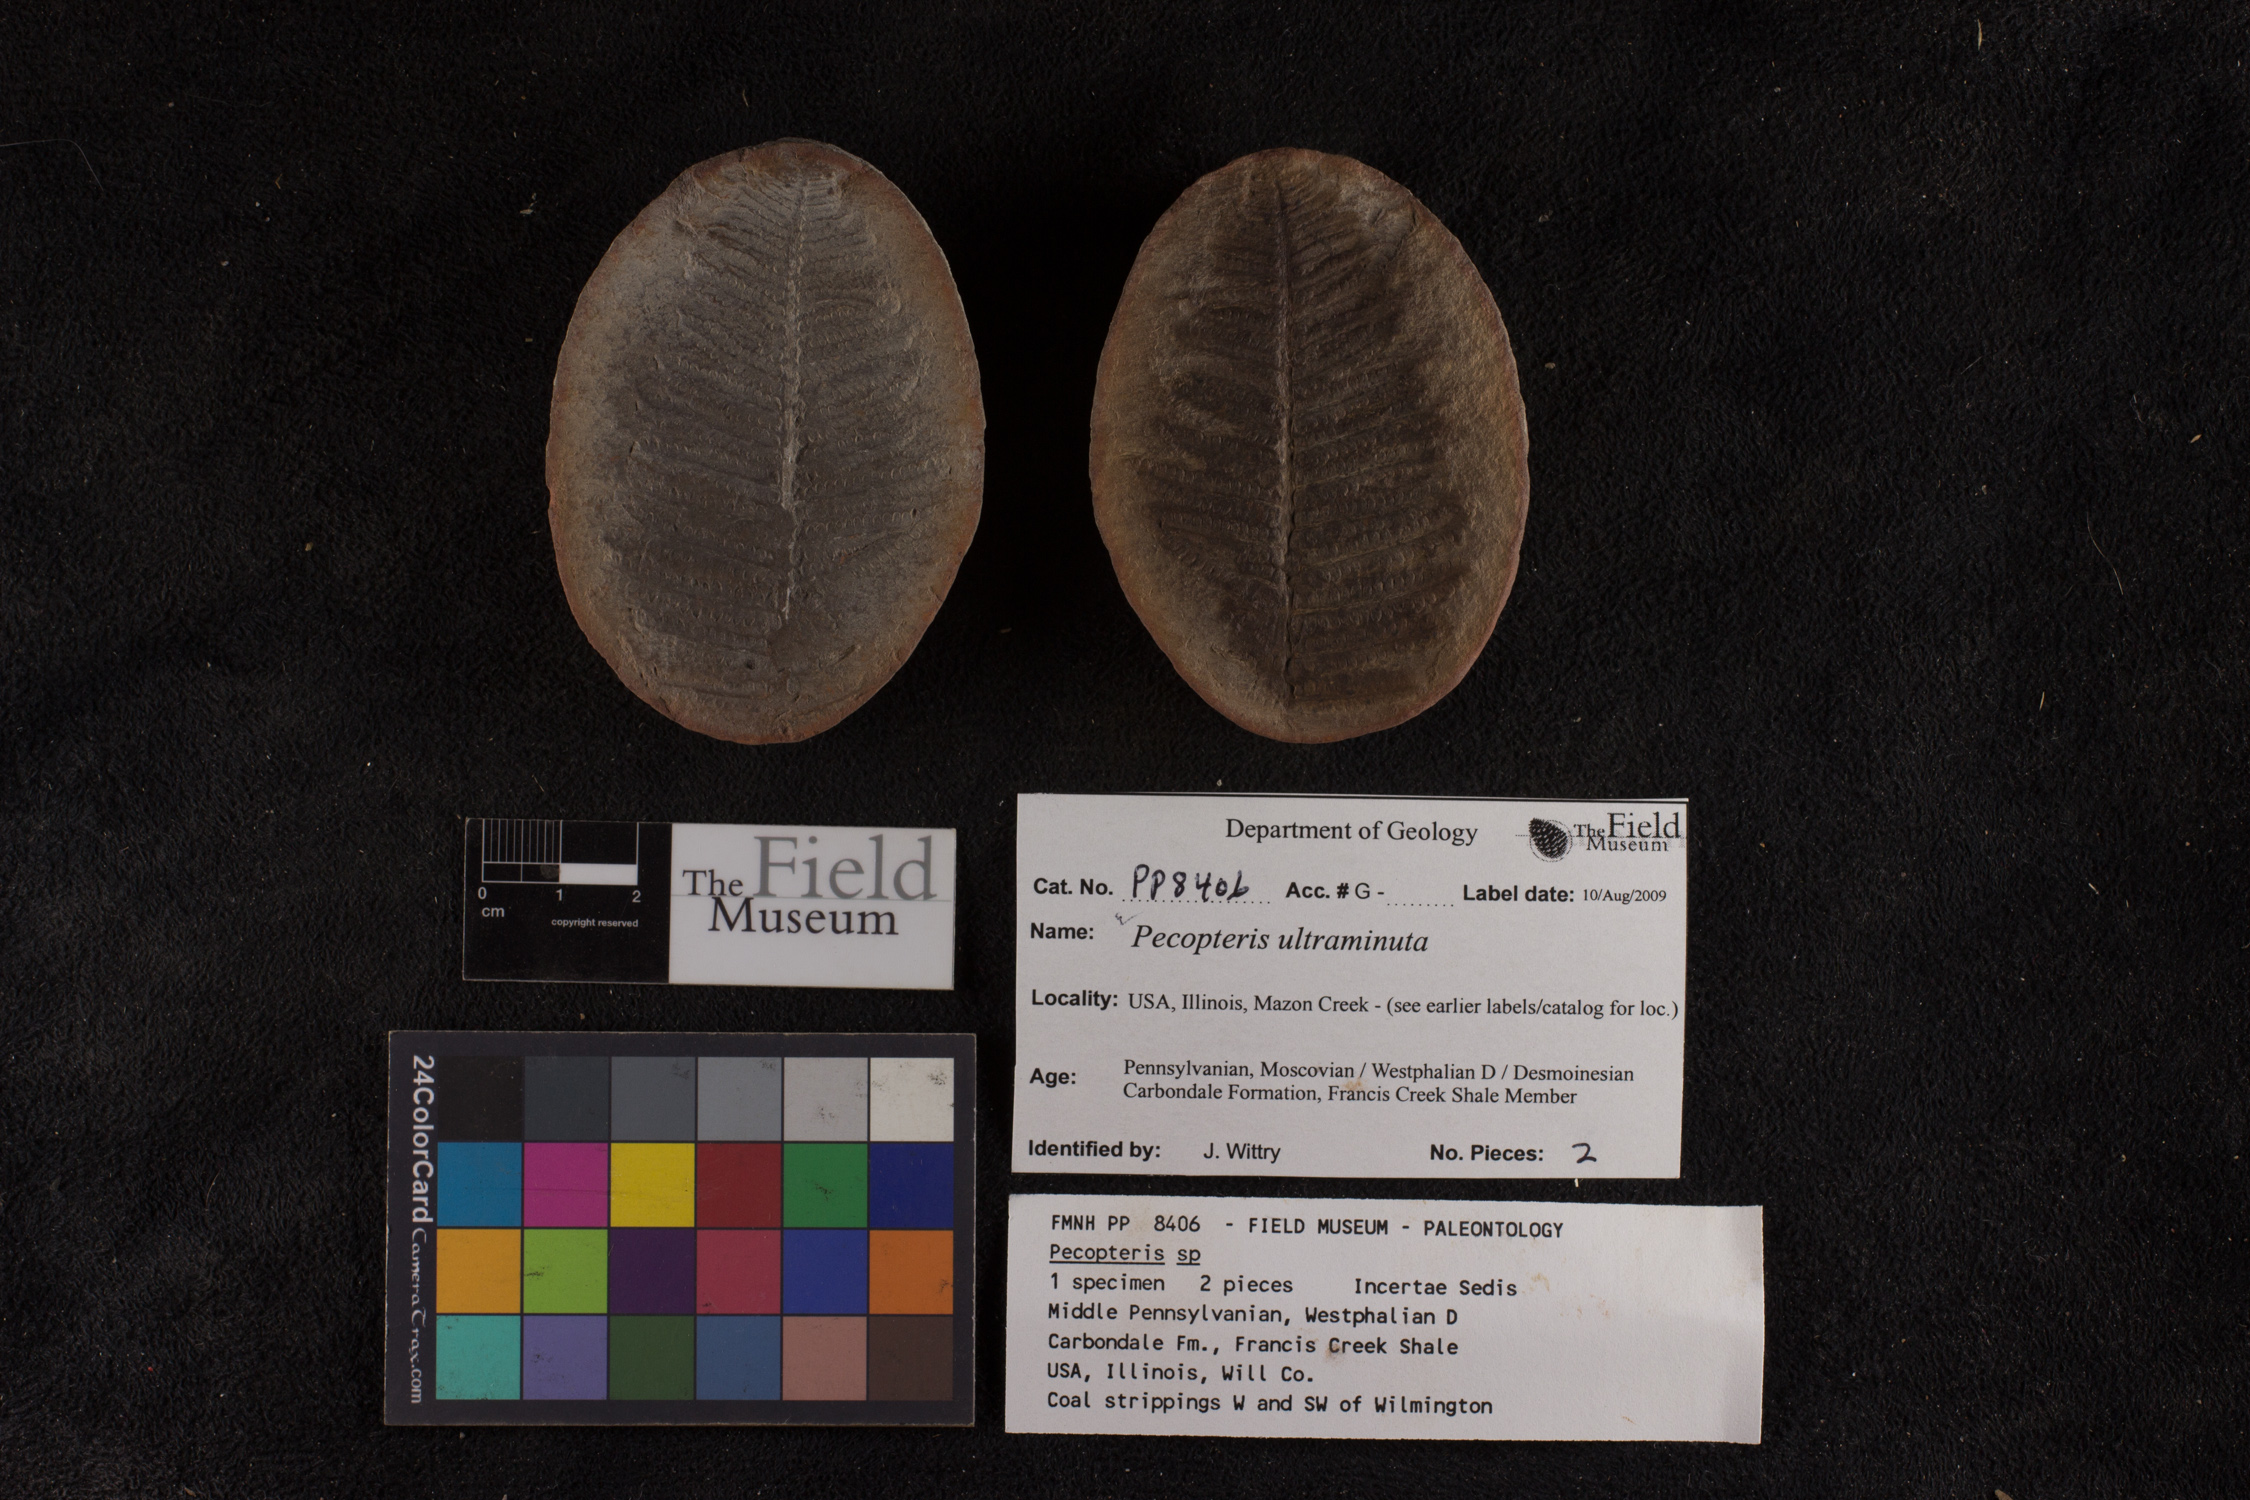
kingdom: Plantae
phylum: Tracheophyta
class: Polypodiopsida
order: Marattiales
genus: Cyathocarpus
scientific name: Cyathocarpus
